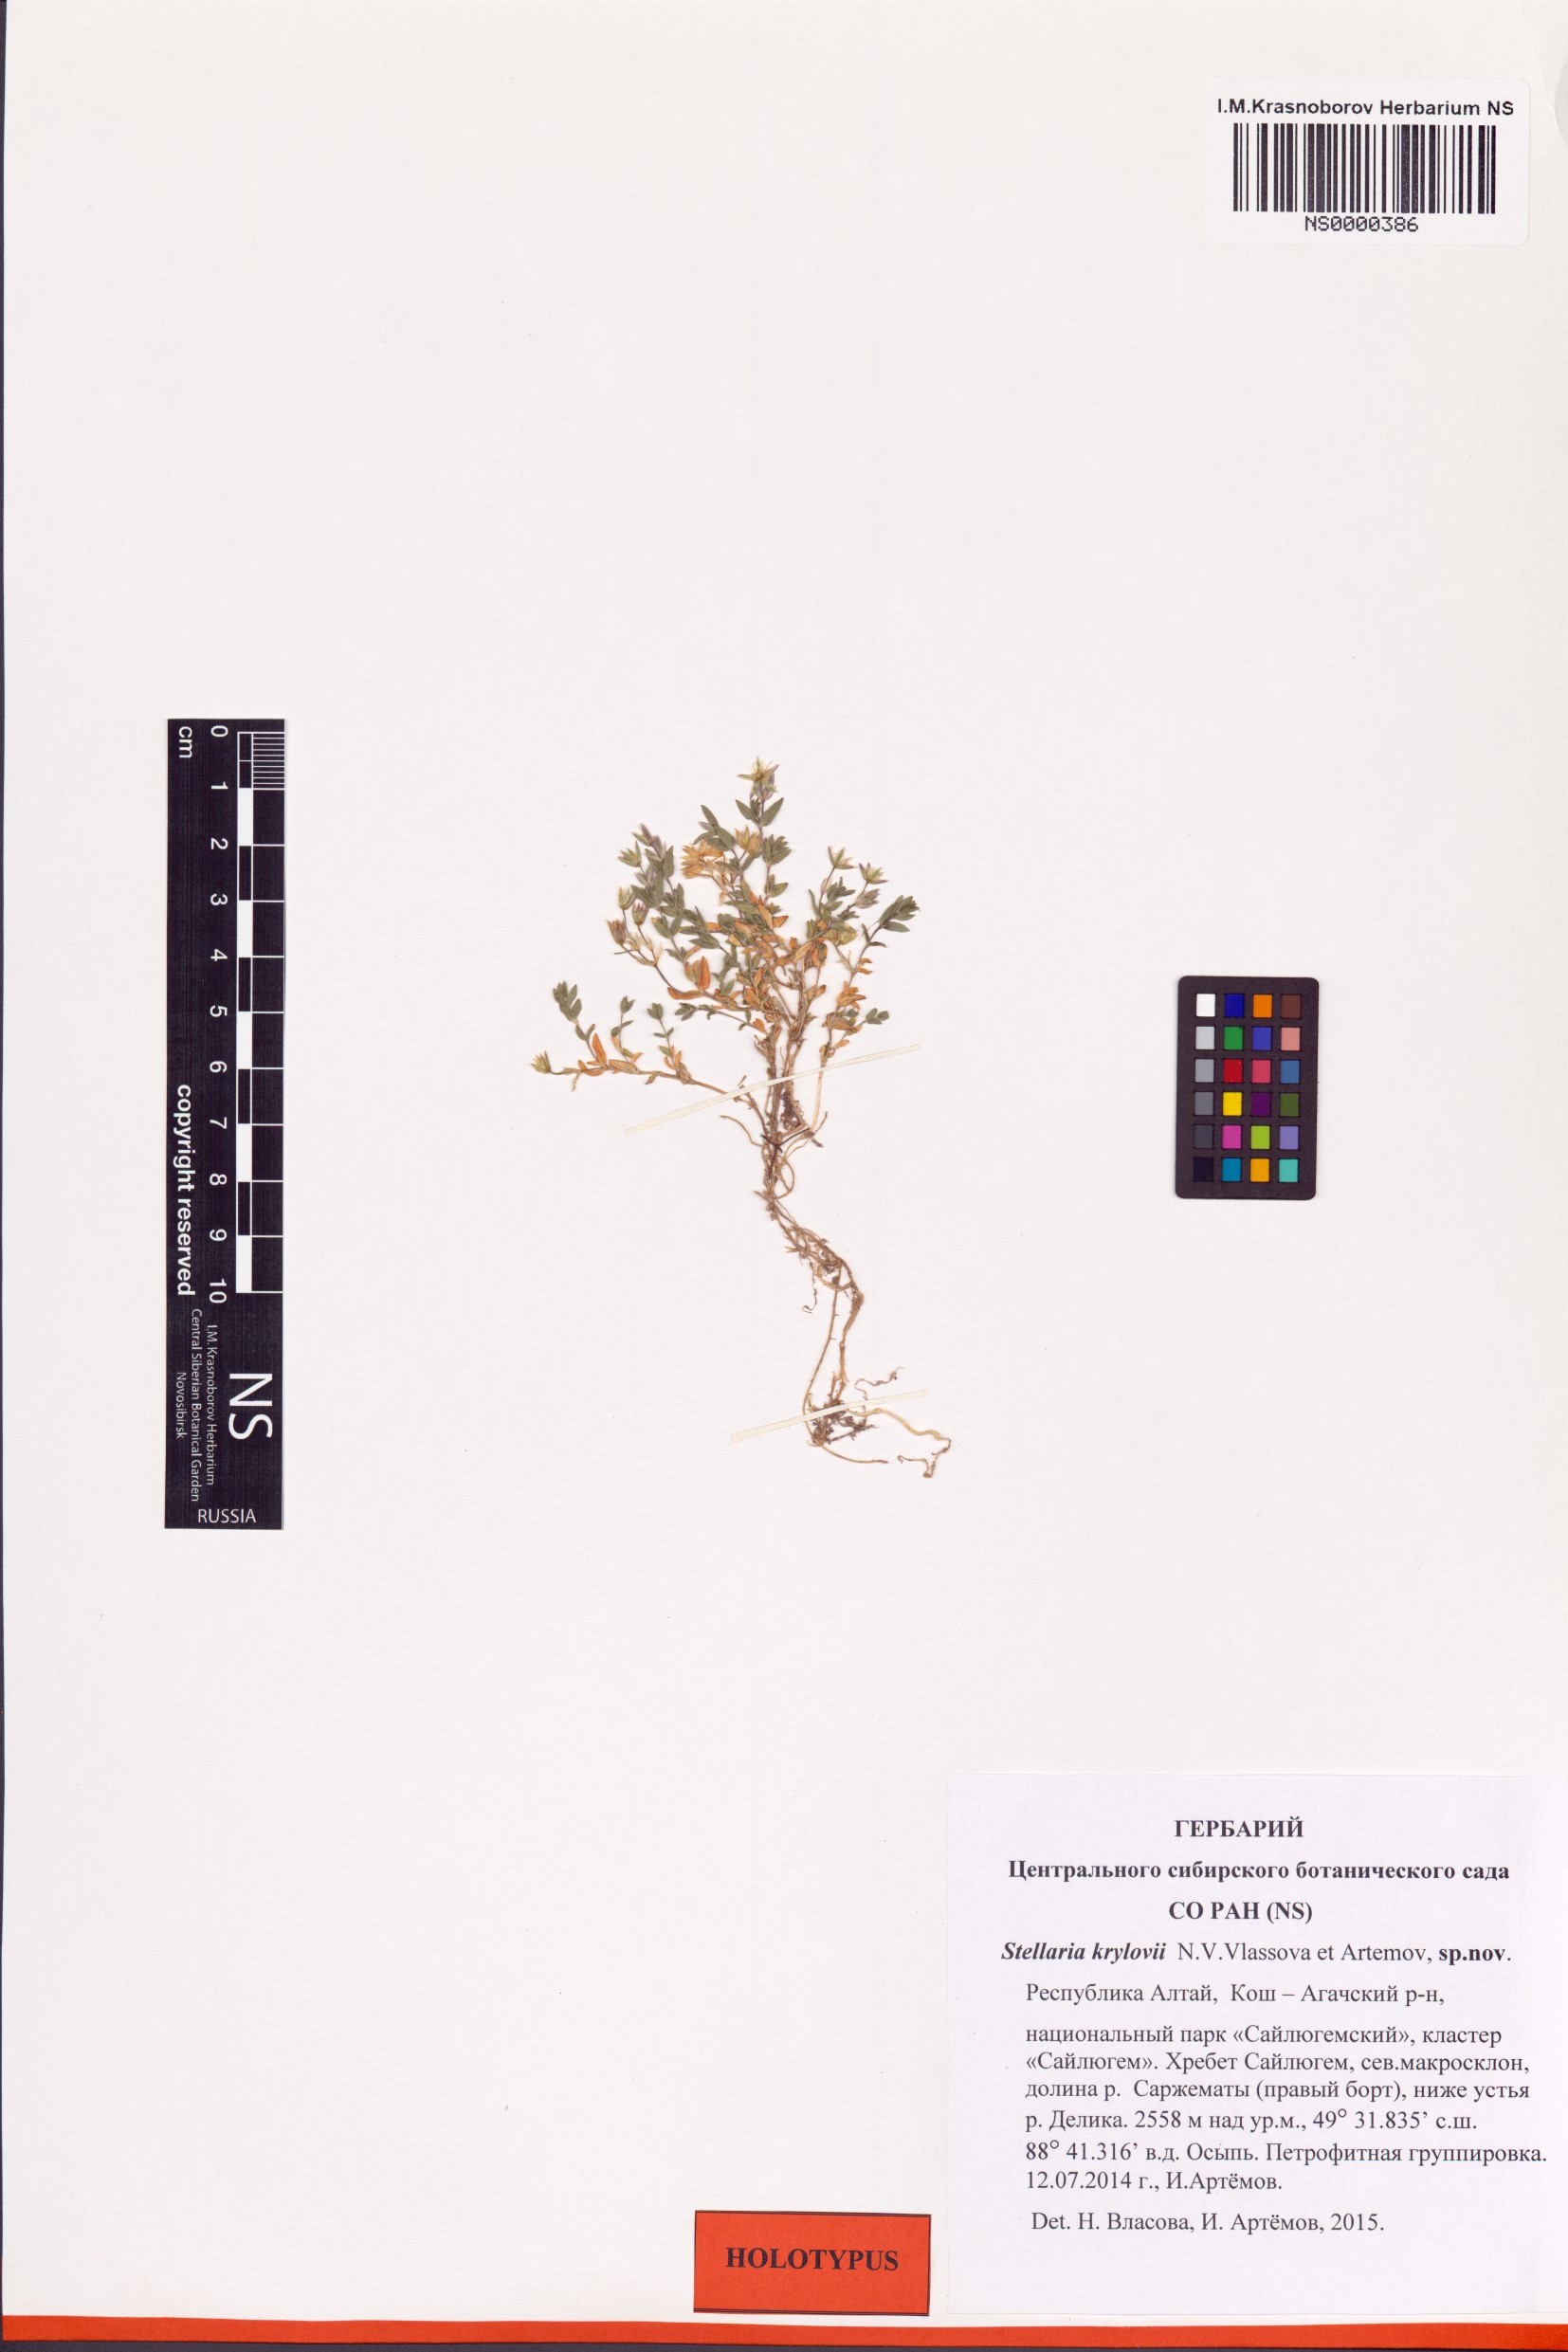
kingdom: Plantae
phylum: Tracheophyta
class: Magnoliopsida
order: Caryophyllales
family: Caryophyllaceae
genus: Stellaria
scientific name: Stellaria krylovii
